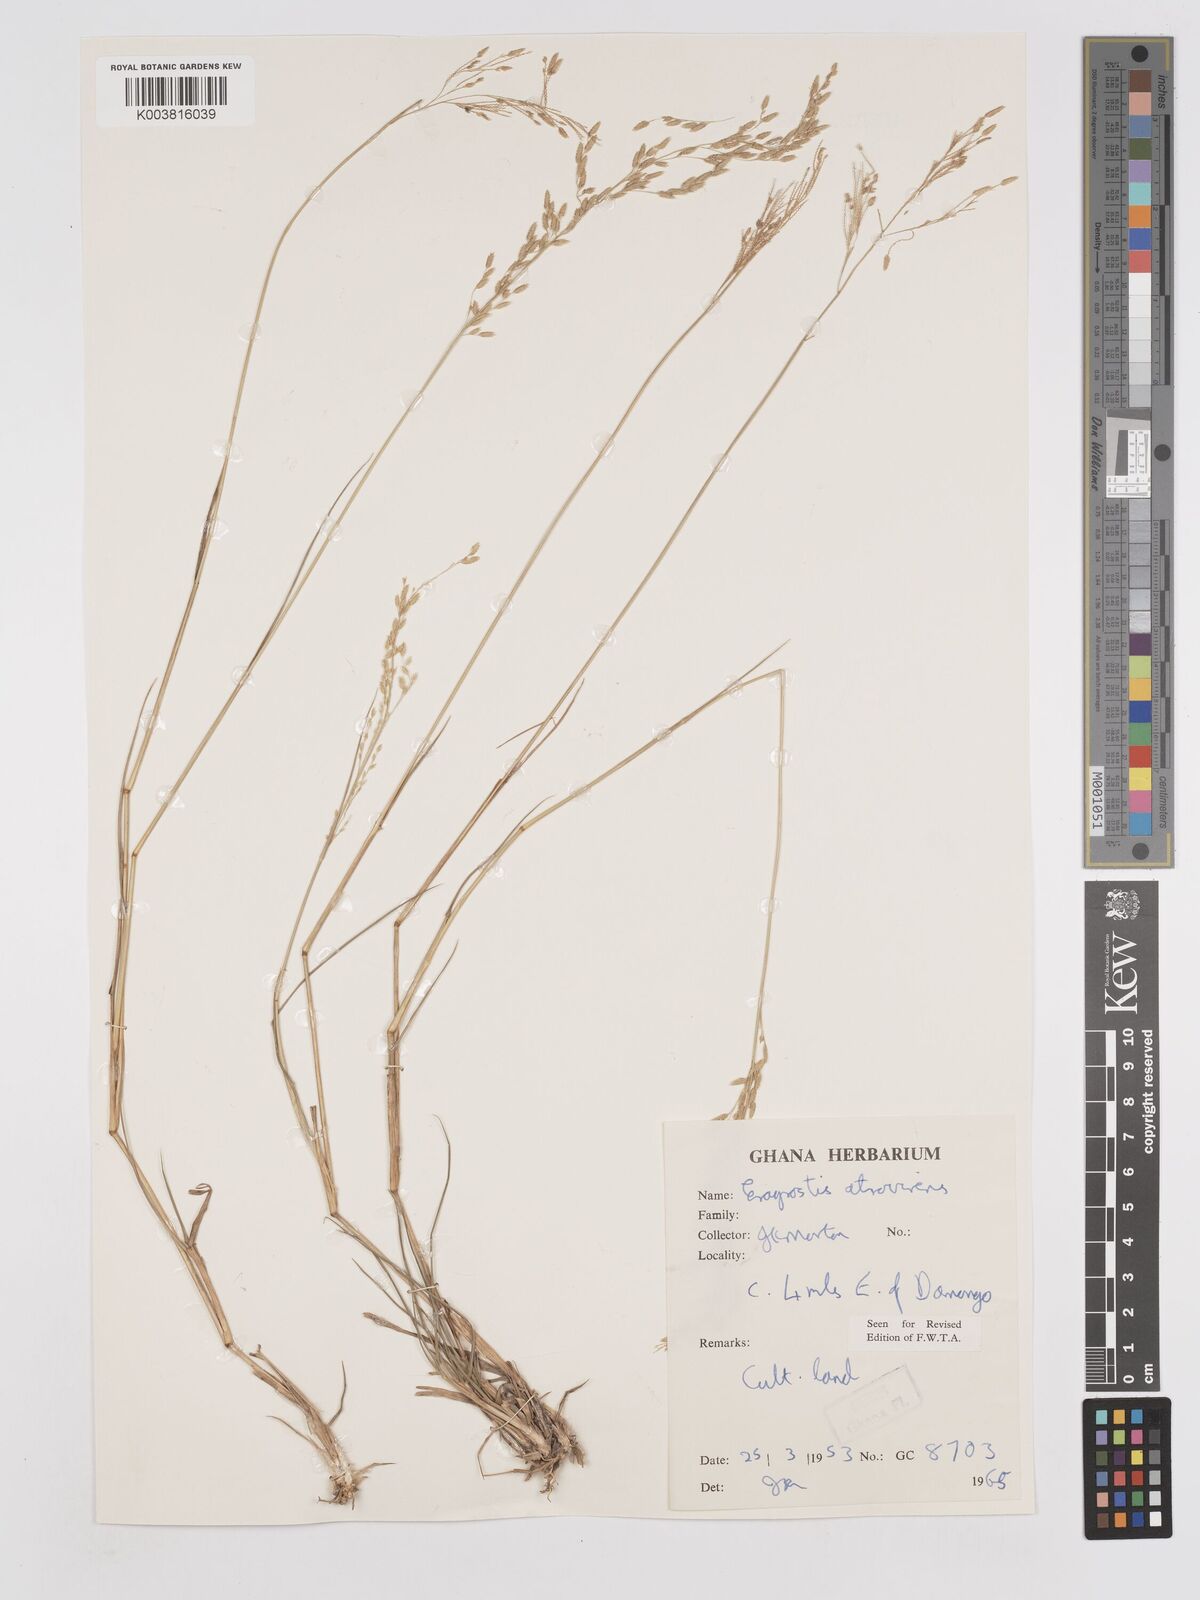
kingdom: Plantae
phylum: Tracheophyta
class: Liliopsida
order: Poales
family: Poaceae
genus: Eragrostis
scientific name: Eragrostis atrovirens
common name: Thalia lovegrass
